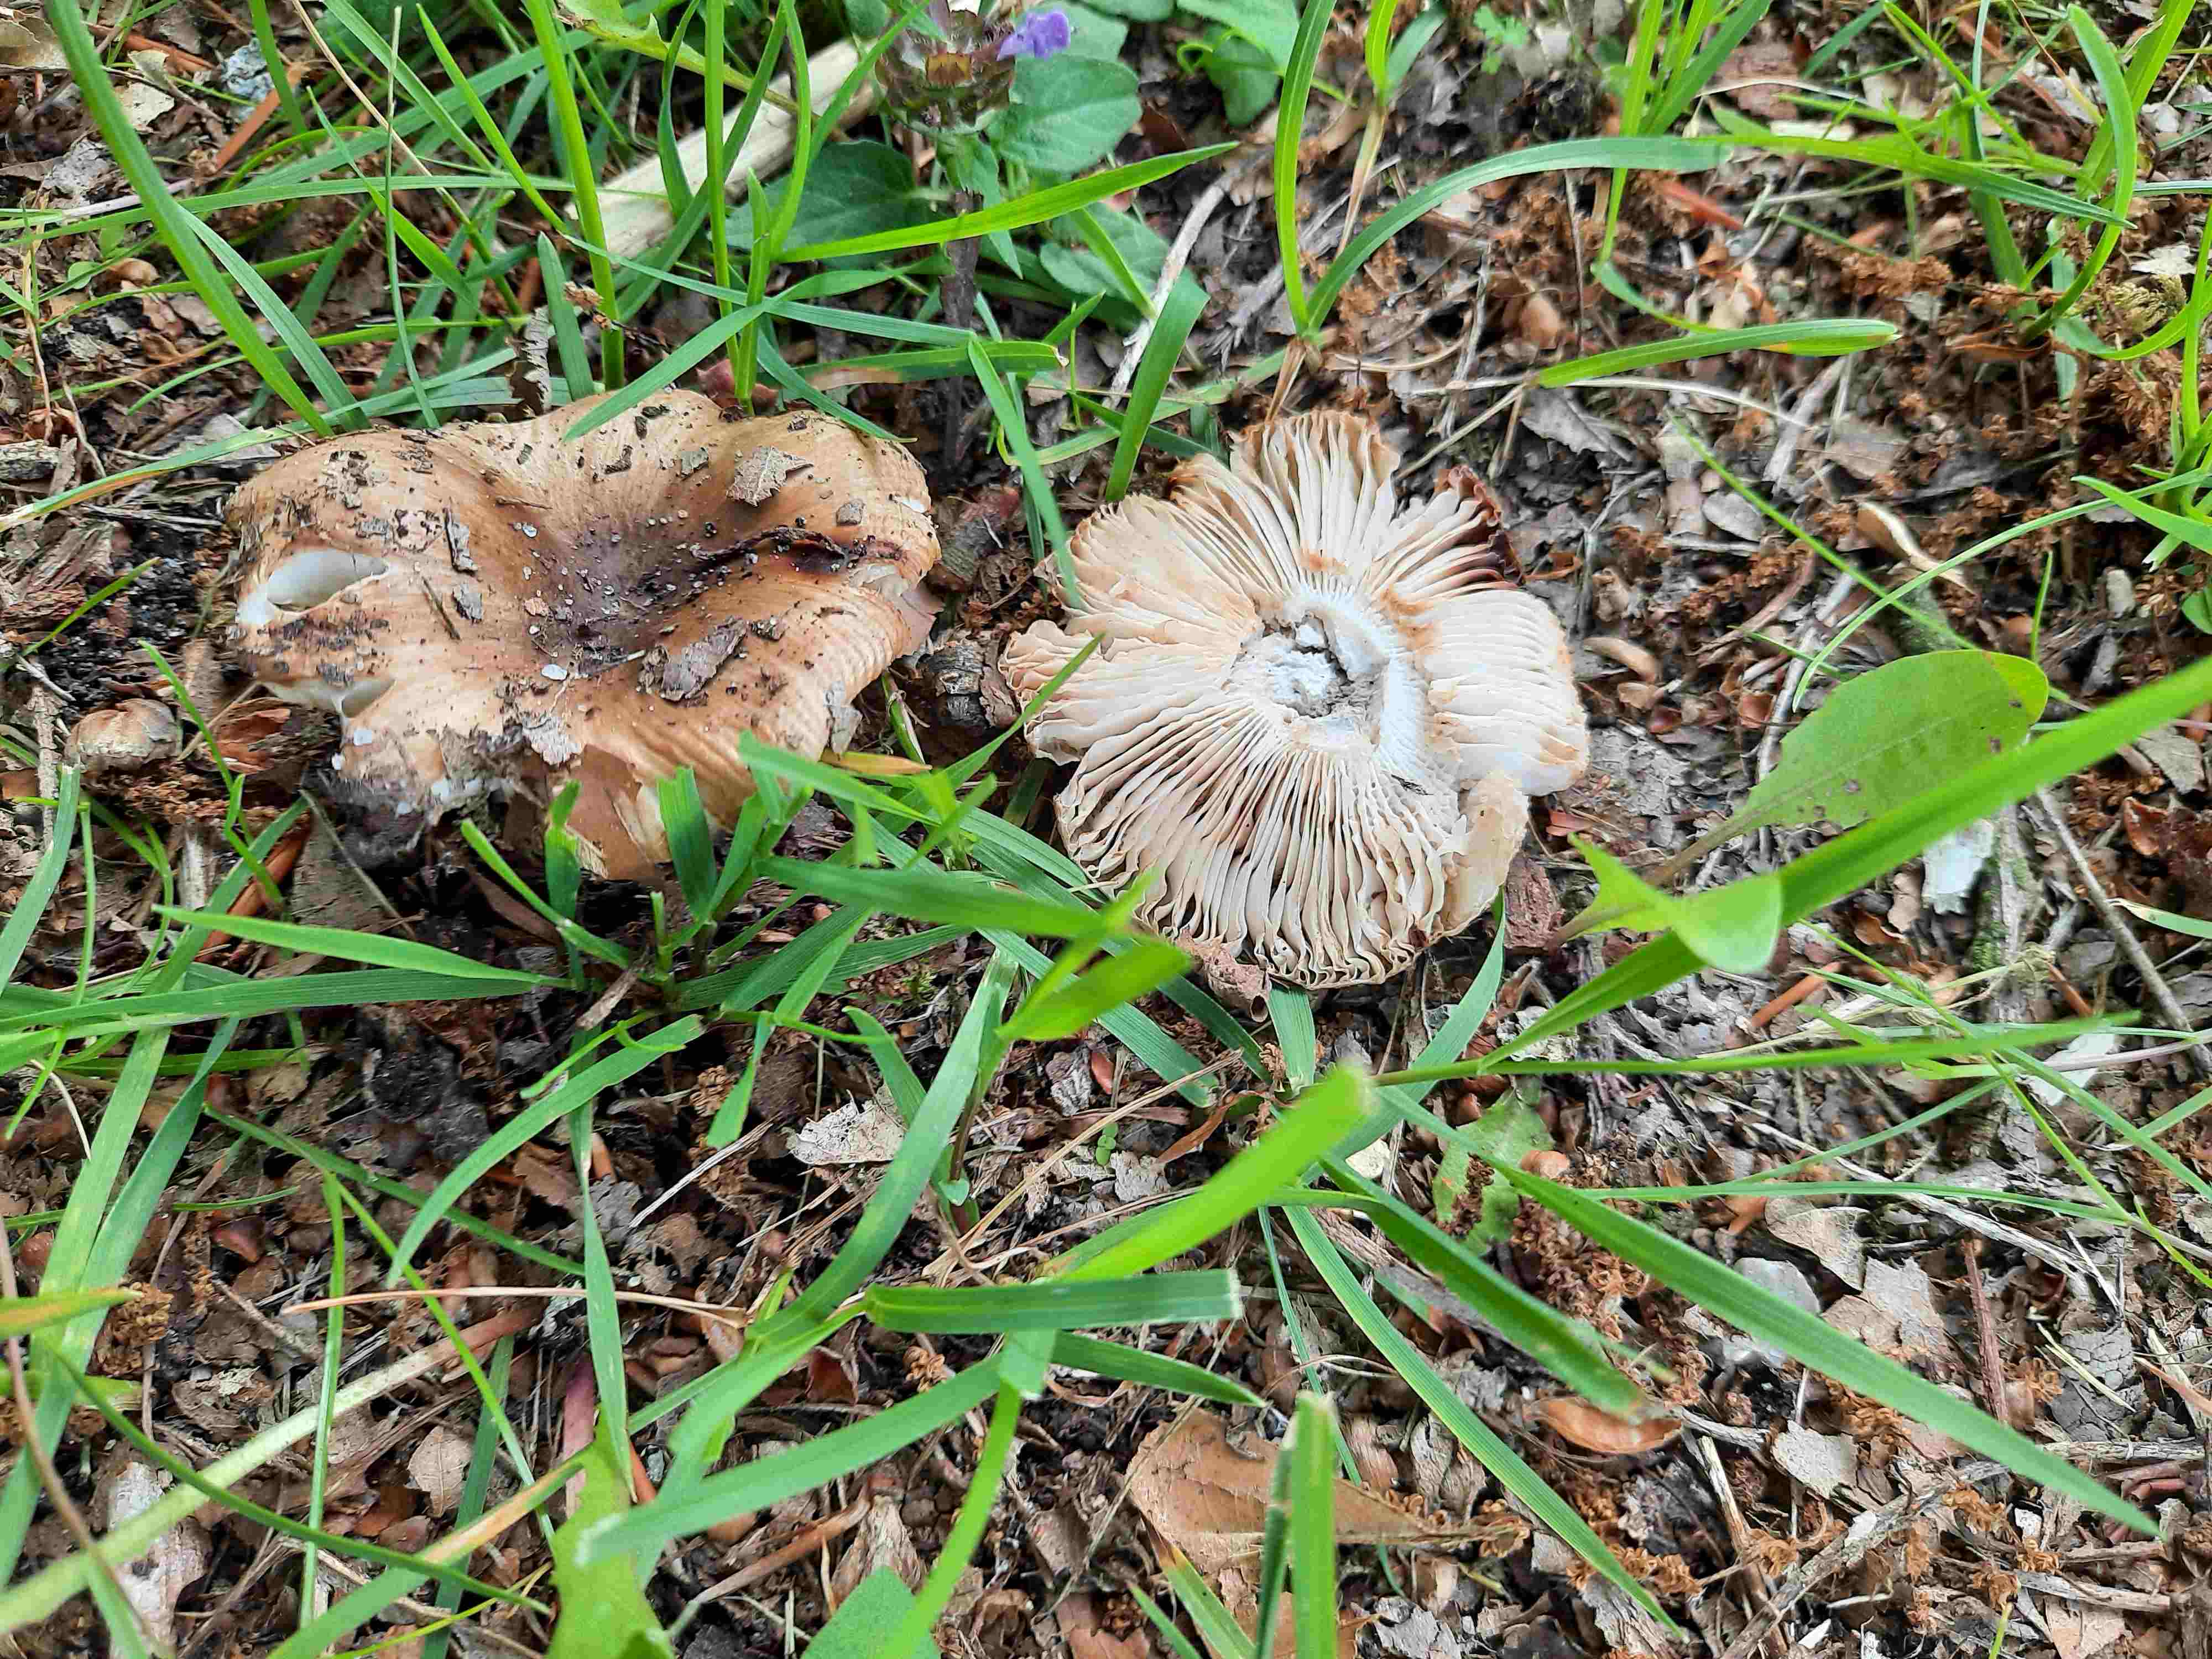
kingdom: Fungi
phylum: Basidiomycota
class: Agaricomycetes
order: Russulales
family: Russulaceae
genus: Russula
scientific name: Russula recondita
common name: mild kam-skørhat
